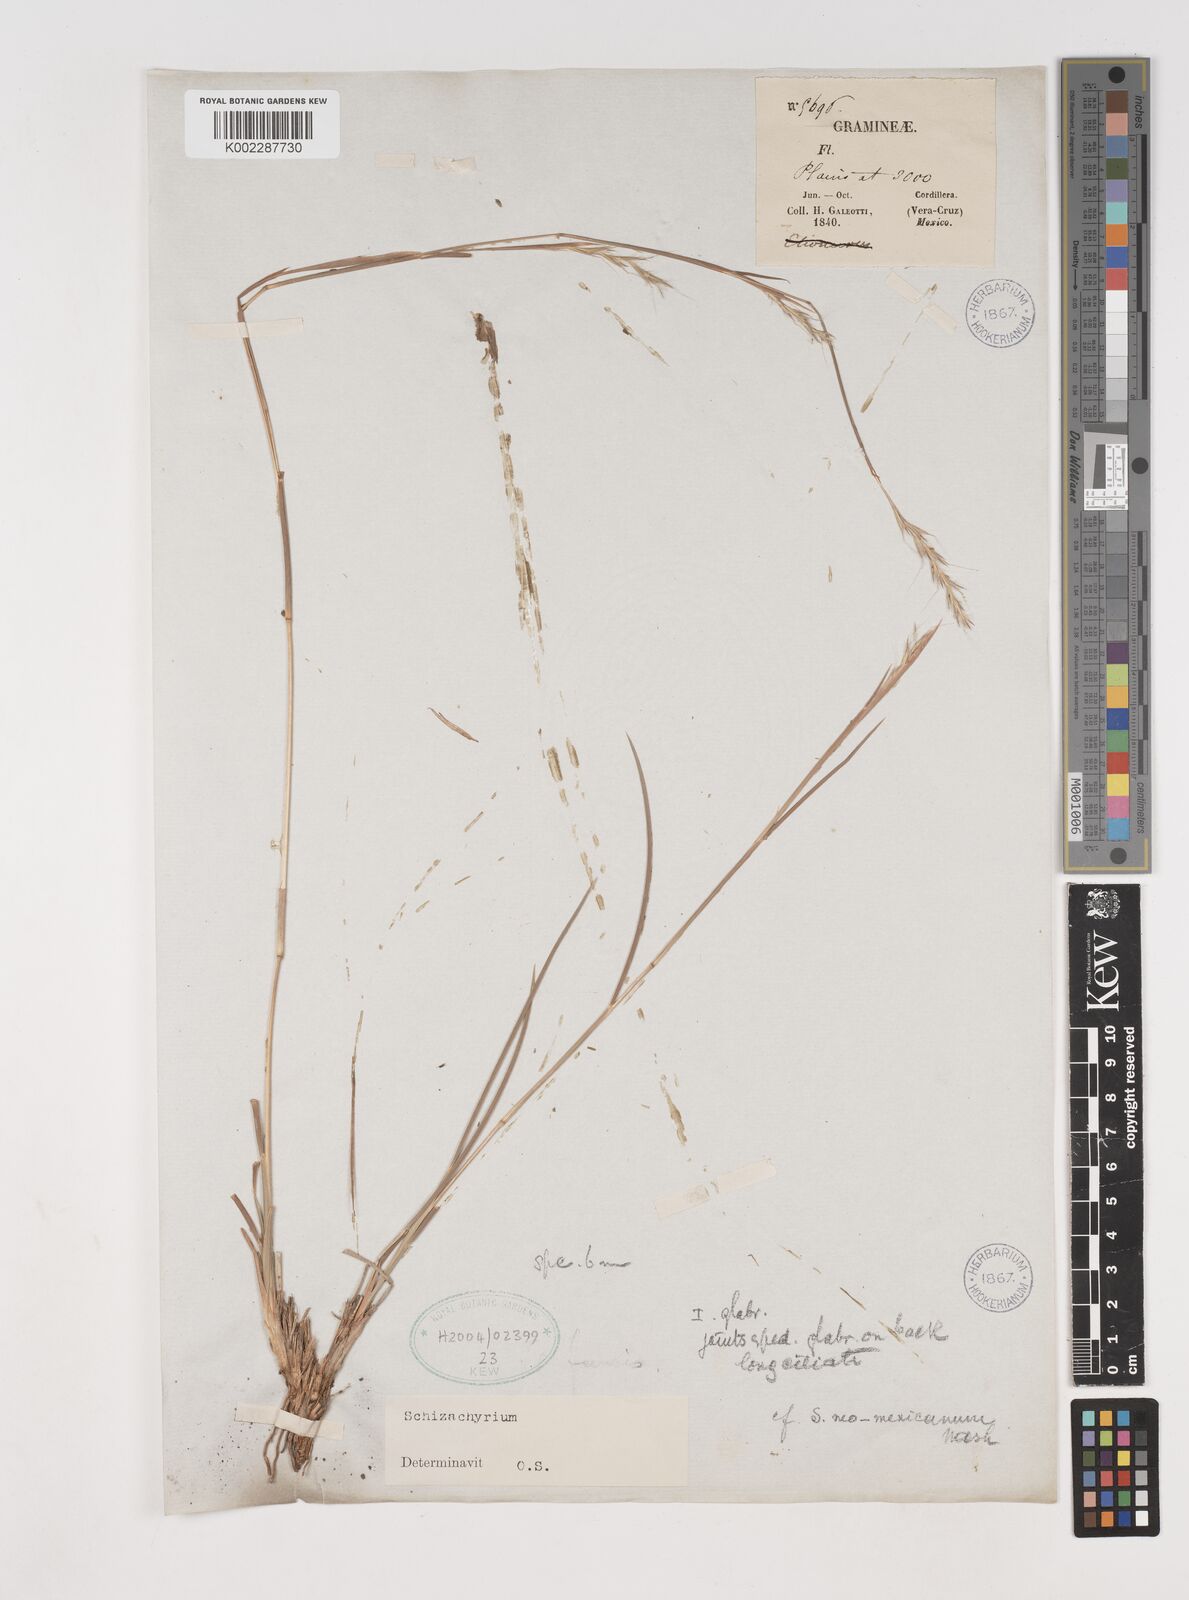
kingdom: Plantae
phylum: Tracheophyta
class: Liliopsida
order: Poales
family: Poaceae
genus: Schizachyrium
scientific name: Schizachyrium
